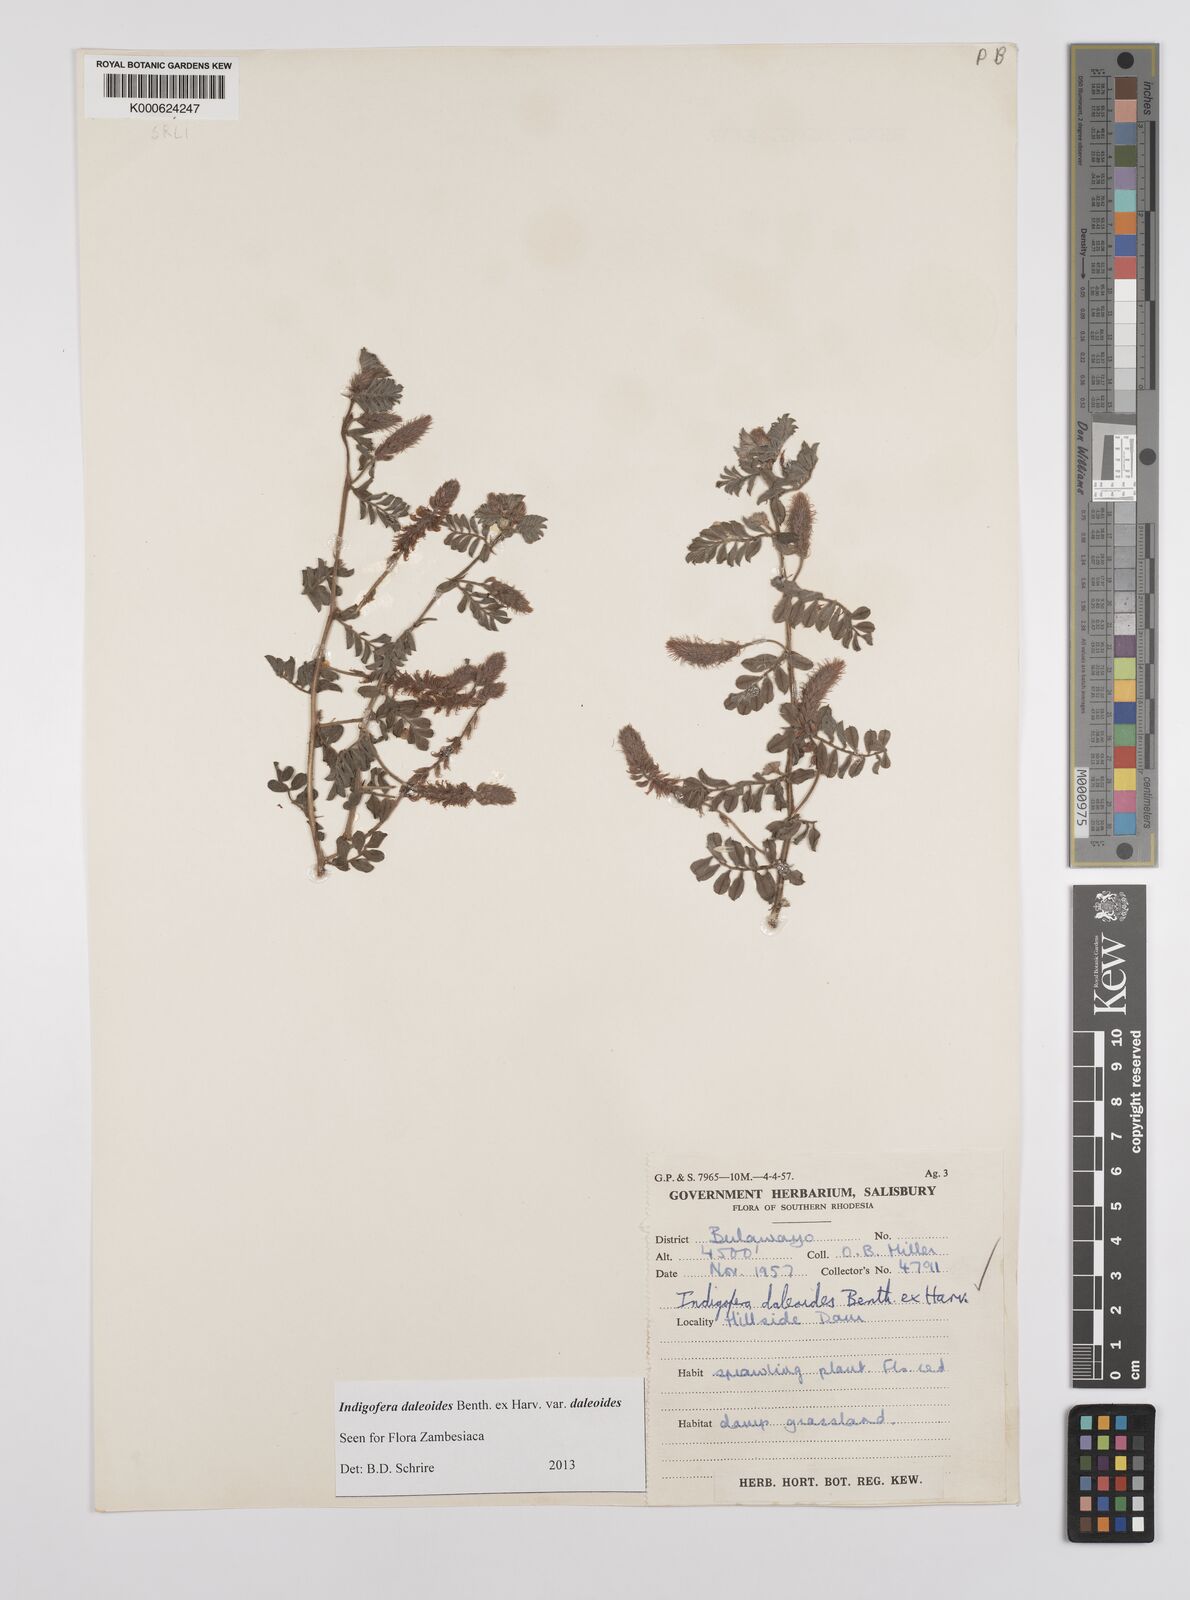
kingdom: Plantae
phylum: Tracheophyta
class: Magnoliopsida
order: Fabales
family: Fabaceae
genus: Indigofera
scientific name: Indigofera daleoides
